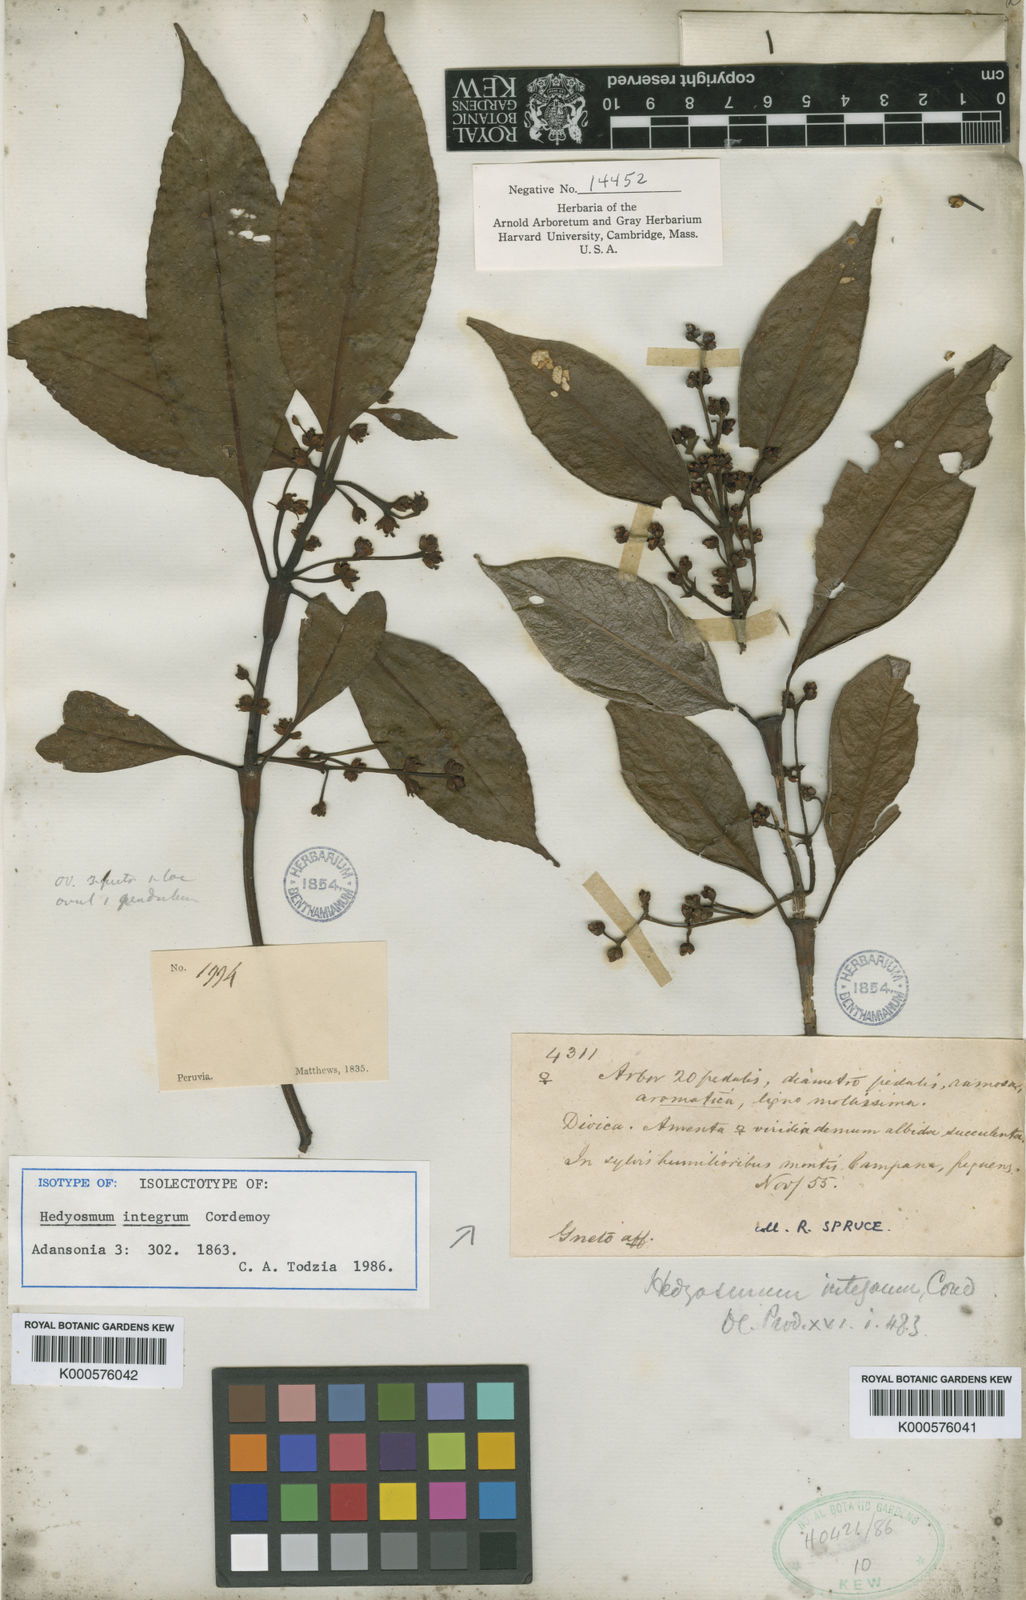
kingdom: Plantae
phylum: Tracheophyta
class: Magnoliopsida
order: Chloranthales
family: Chloranthaceae
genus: Hedyosmum
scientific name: Hedyosmum
